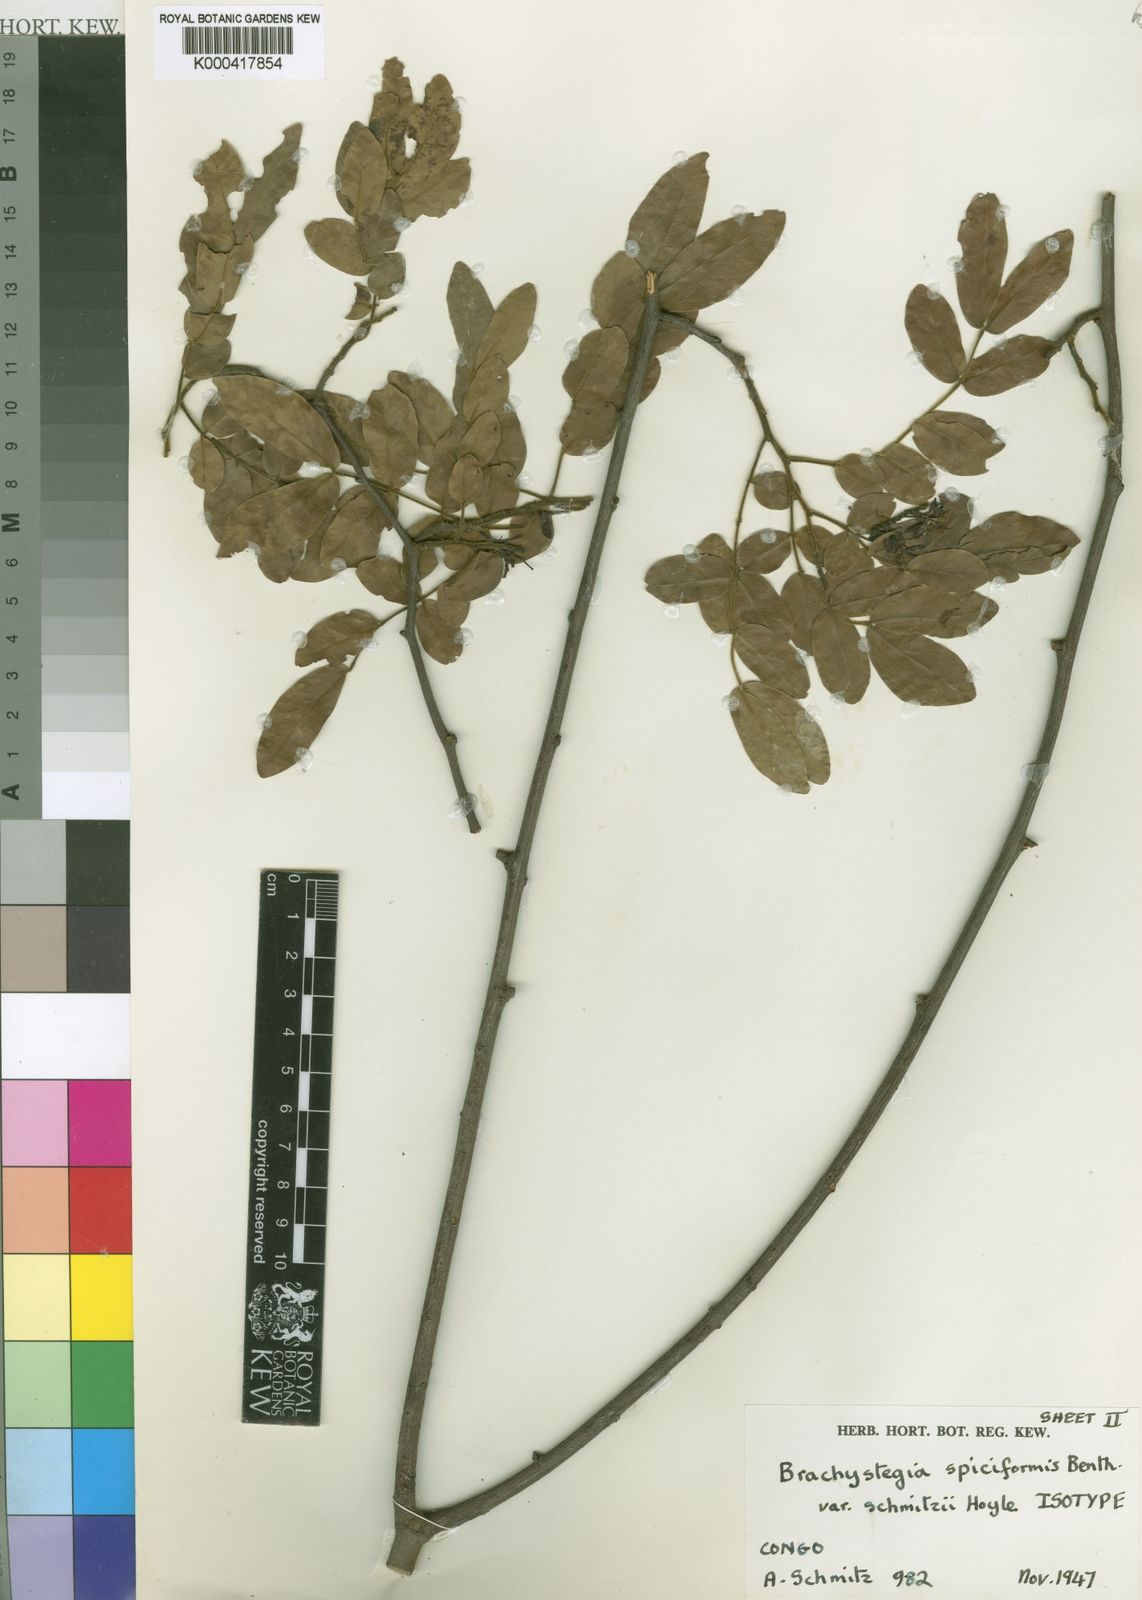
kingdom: Plantae
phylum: Tracheophyta
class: Magnoliopsida
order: Fabales
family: Fabaceae
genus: Brachystegia
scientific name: Brachystegia spiciformis
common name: Zebrawood
